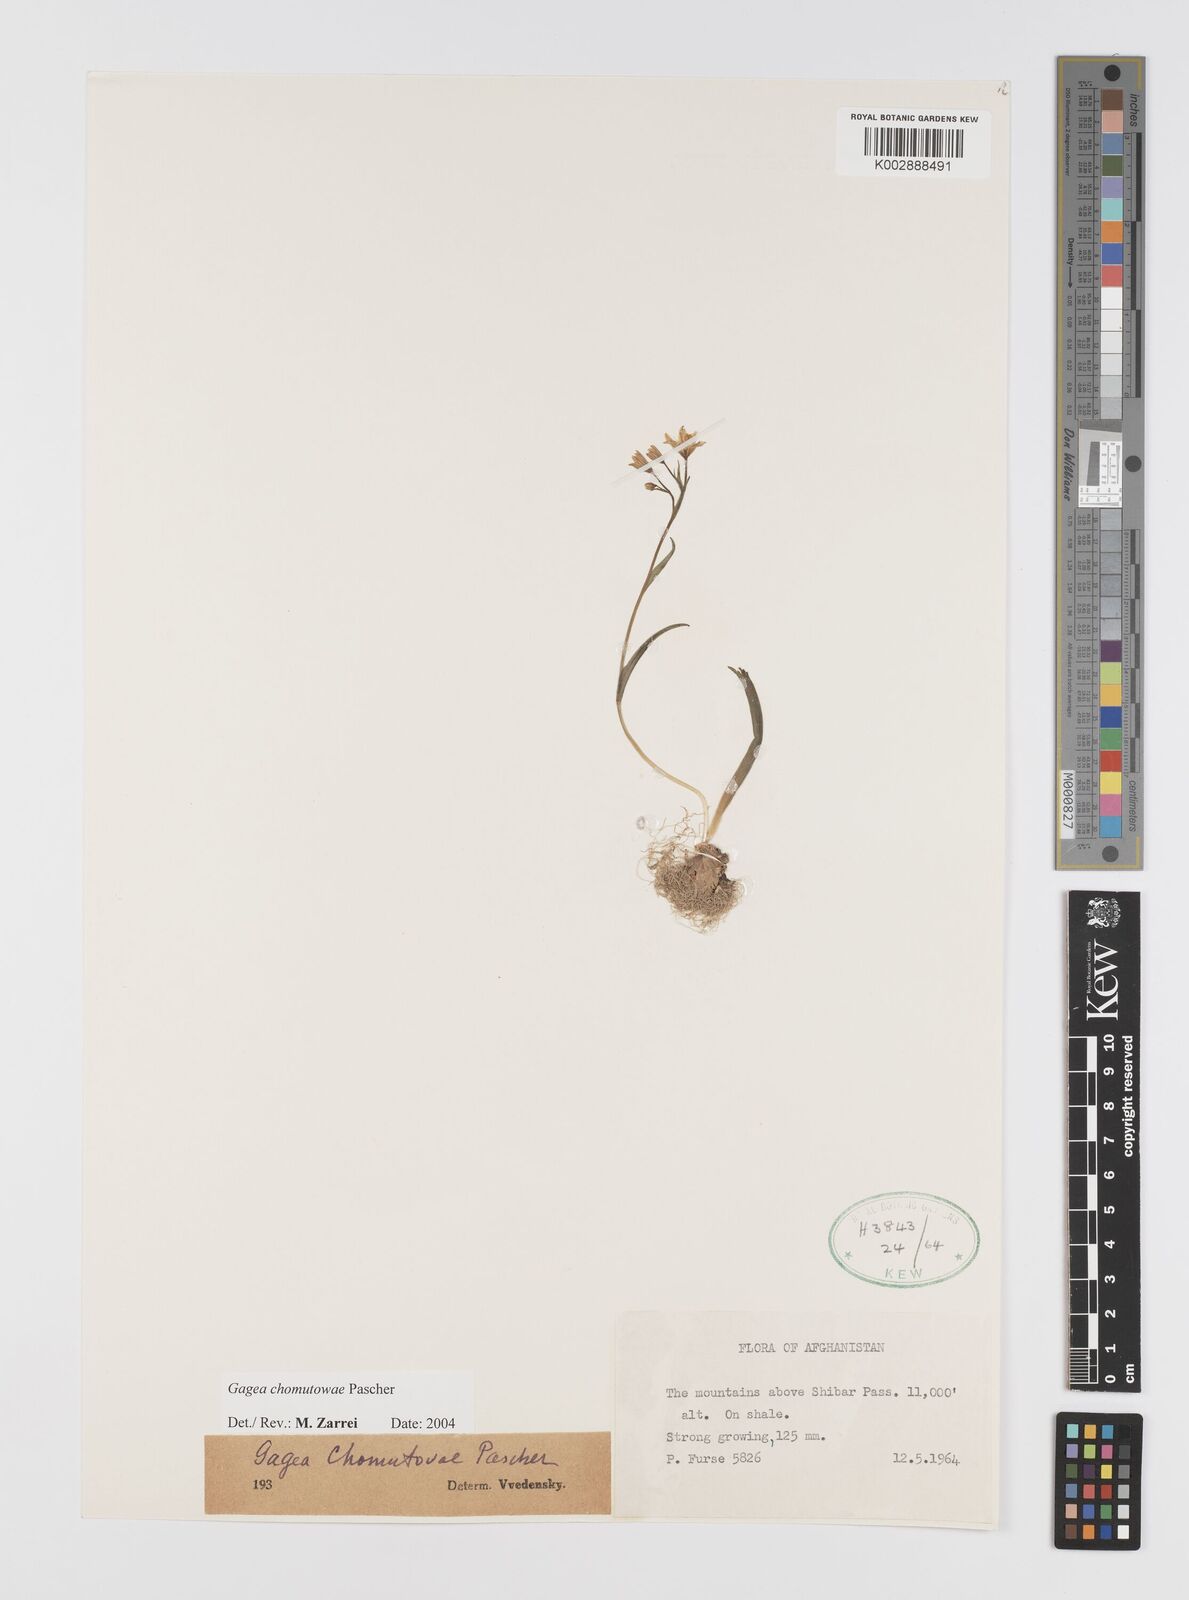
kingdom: Plantae
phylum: Tracheophyta
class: Liliopsida
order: Liliales
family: Liliaceae
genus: Gagea
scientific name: Gagea chomutovae
